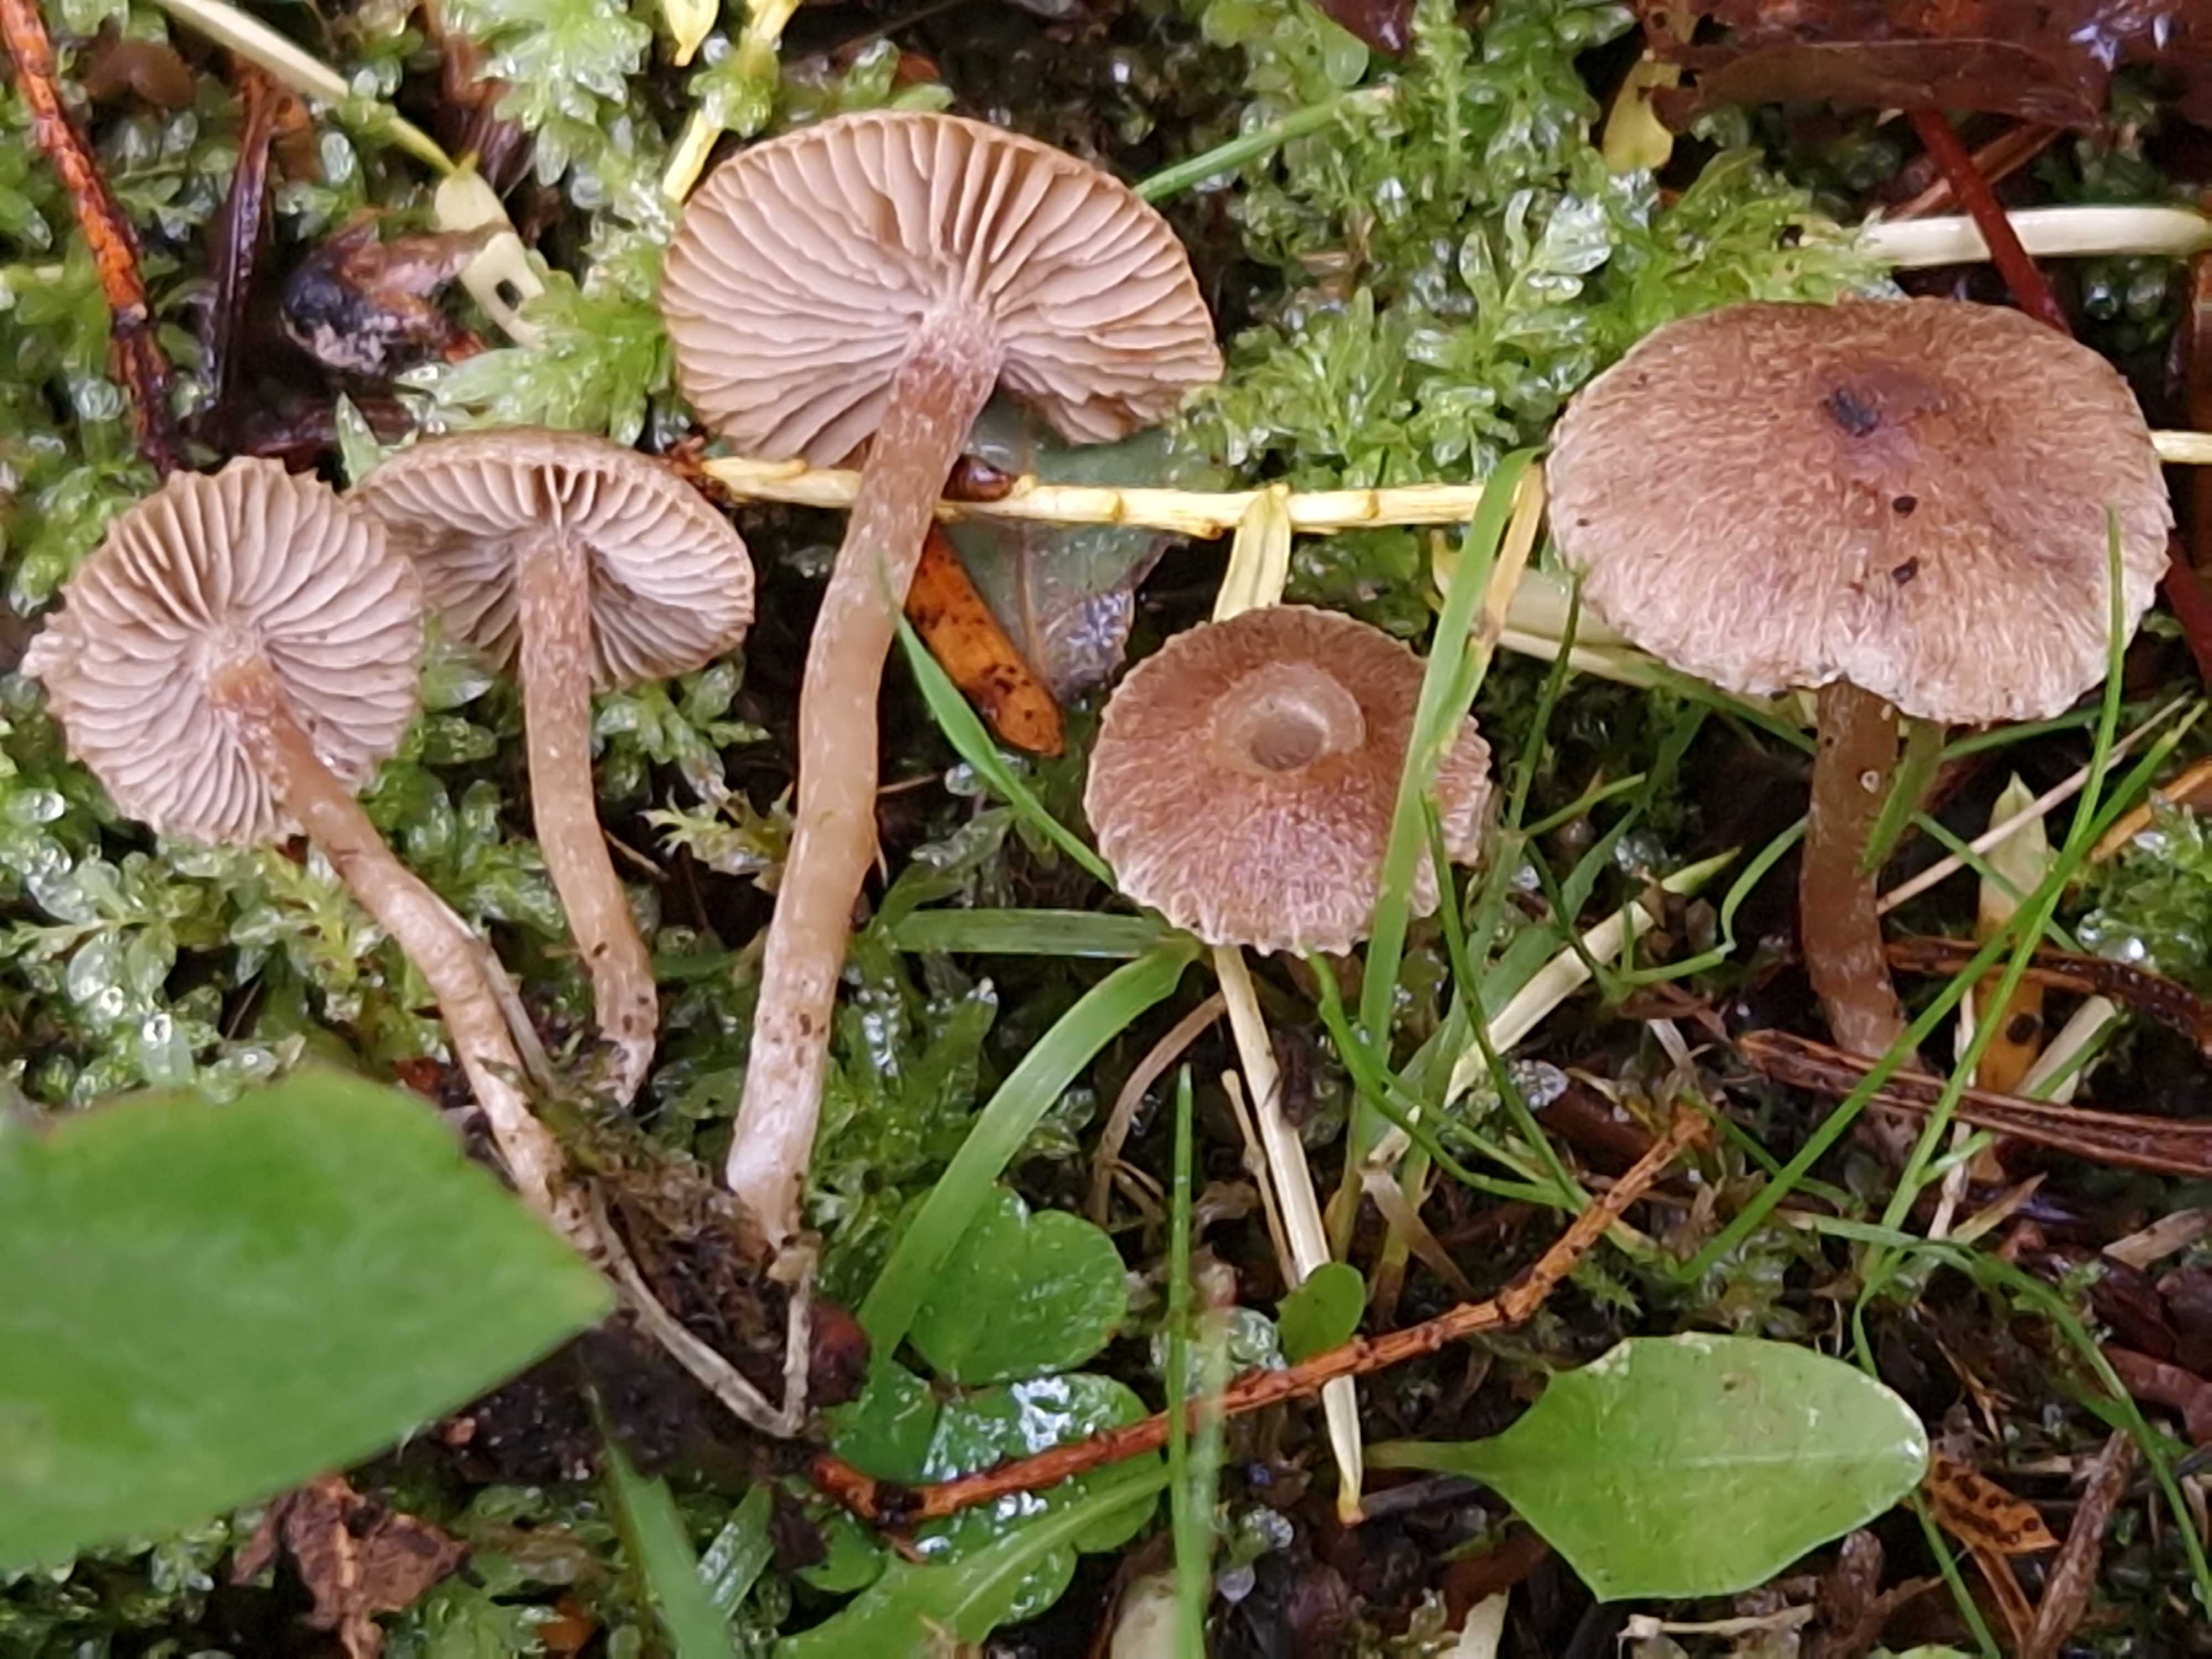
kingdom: Fungi
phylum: Basidiomycota
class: Agaricomycetes
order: Agaricales
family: Inocybaceae
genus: Inocybe
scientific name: Inocybe
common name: trævlhat
